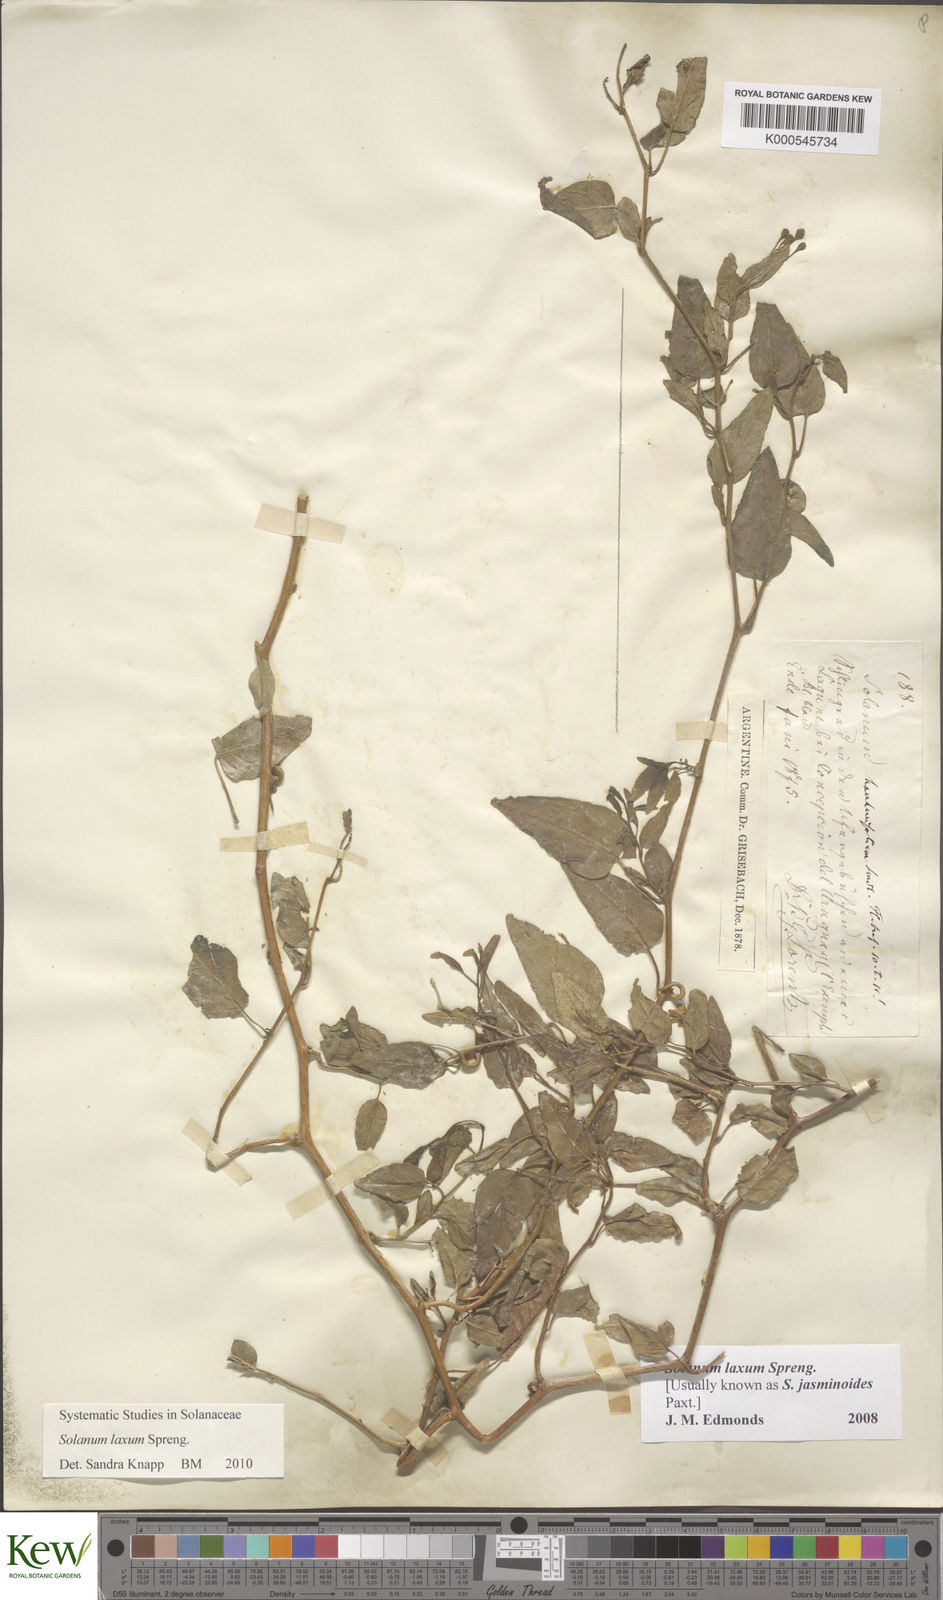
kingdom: Plantae
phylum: Tracheophyta
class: Magnoliopsida
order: Solanales
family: Solanaceae
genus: Solanum
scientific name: Solanum laxum
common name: Nightshade
